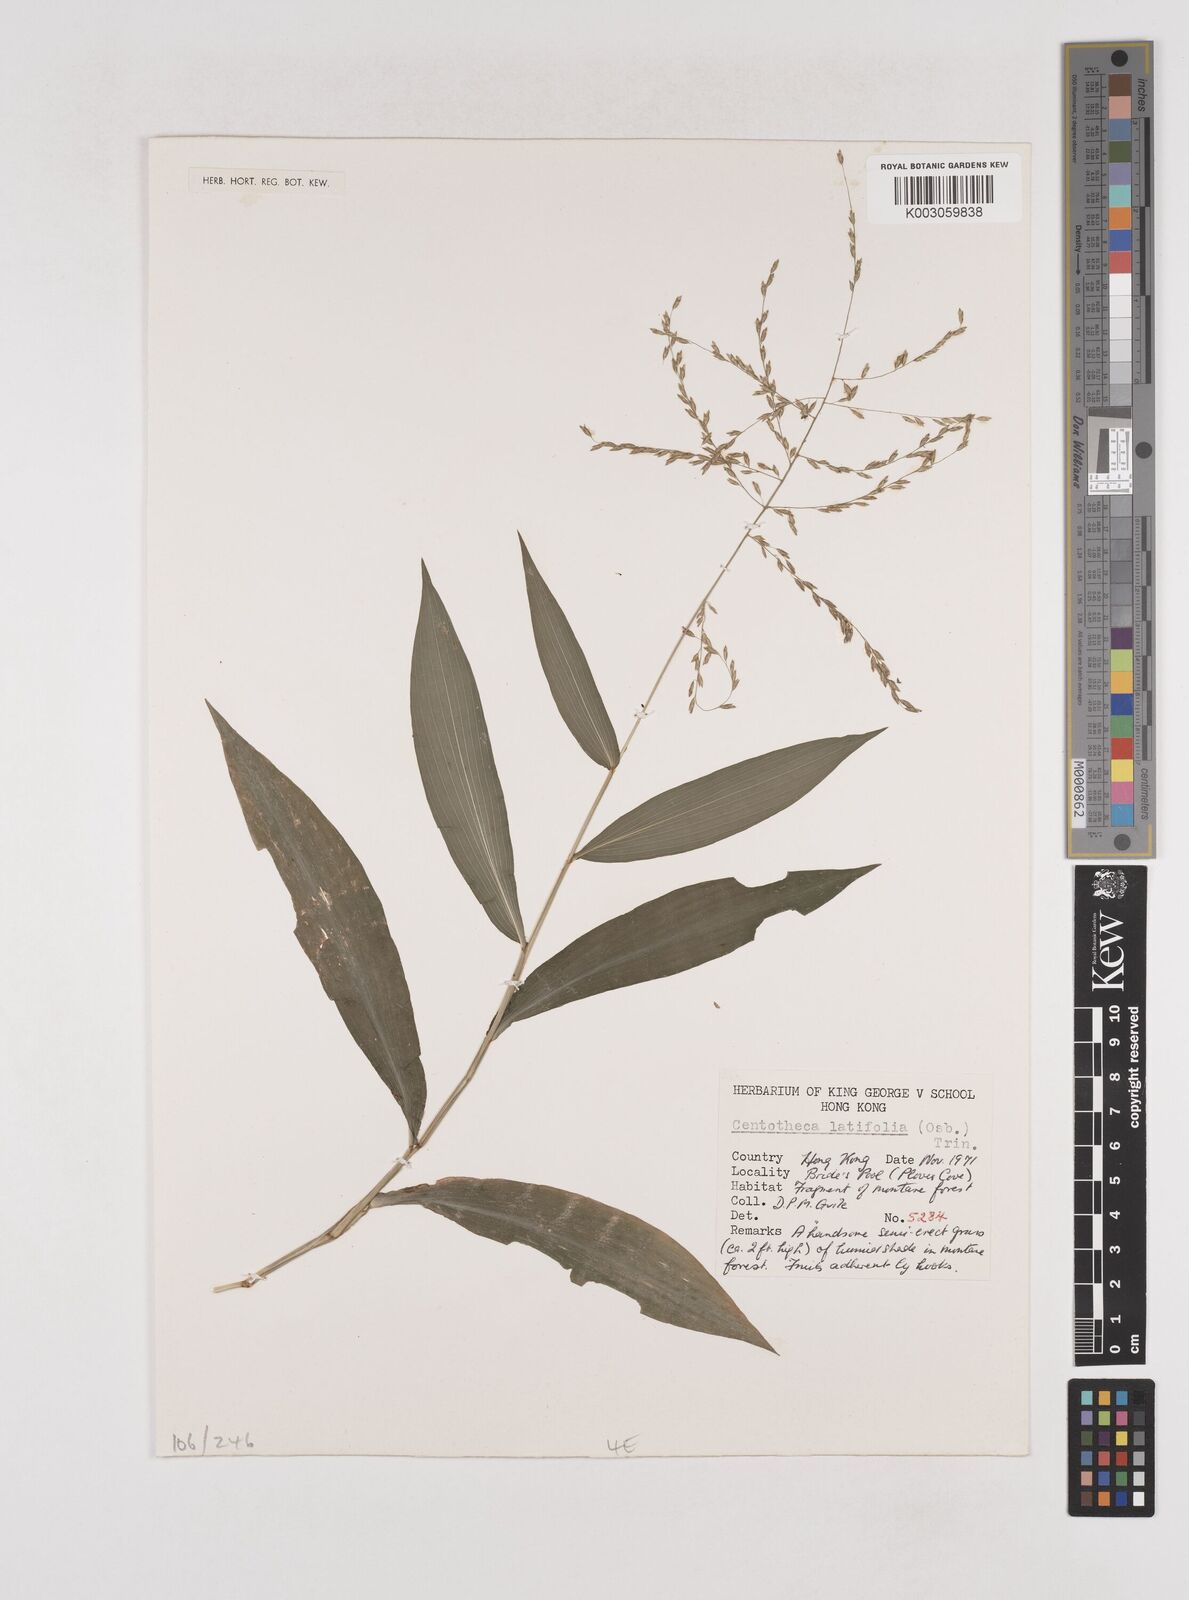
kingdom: Plantae
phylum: Tracheophyta
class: Liliopsida
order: Poales
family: Poaceae
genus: Centotheca
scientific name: Centotheca lappacea
